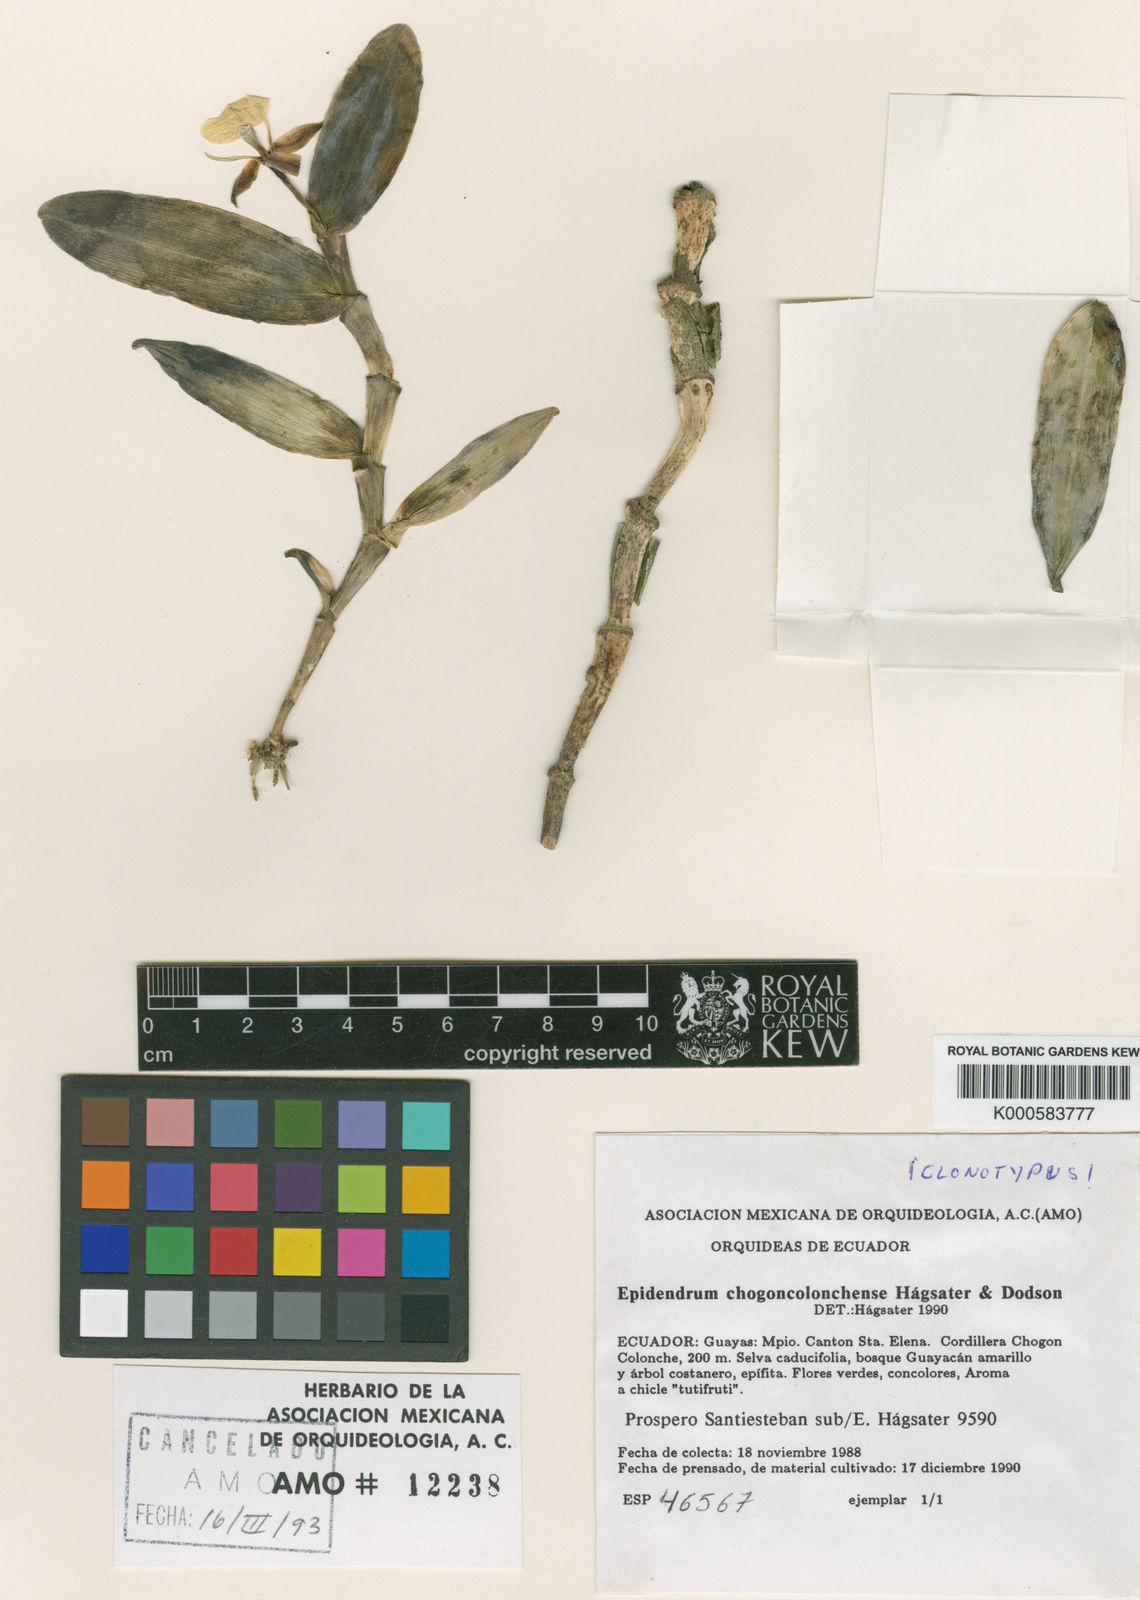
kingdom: Plantae
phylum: Tracheophyta
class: Liliopsida
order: Asparagales
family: Orchidaceae
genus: Epidendrum
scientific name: Epidendrum
